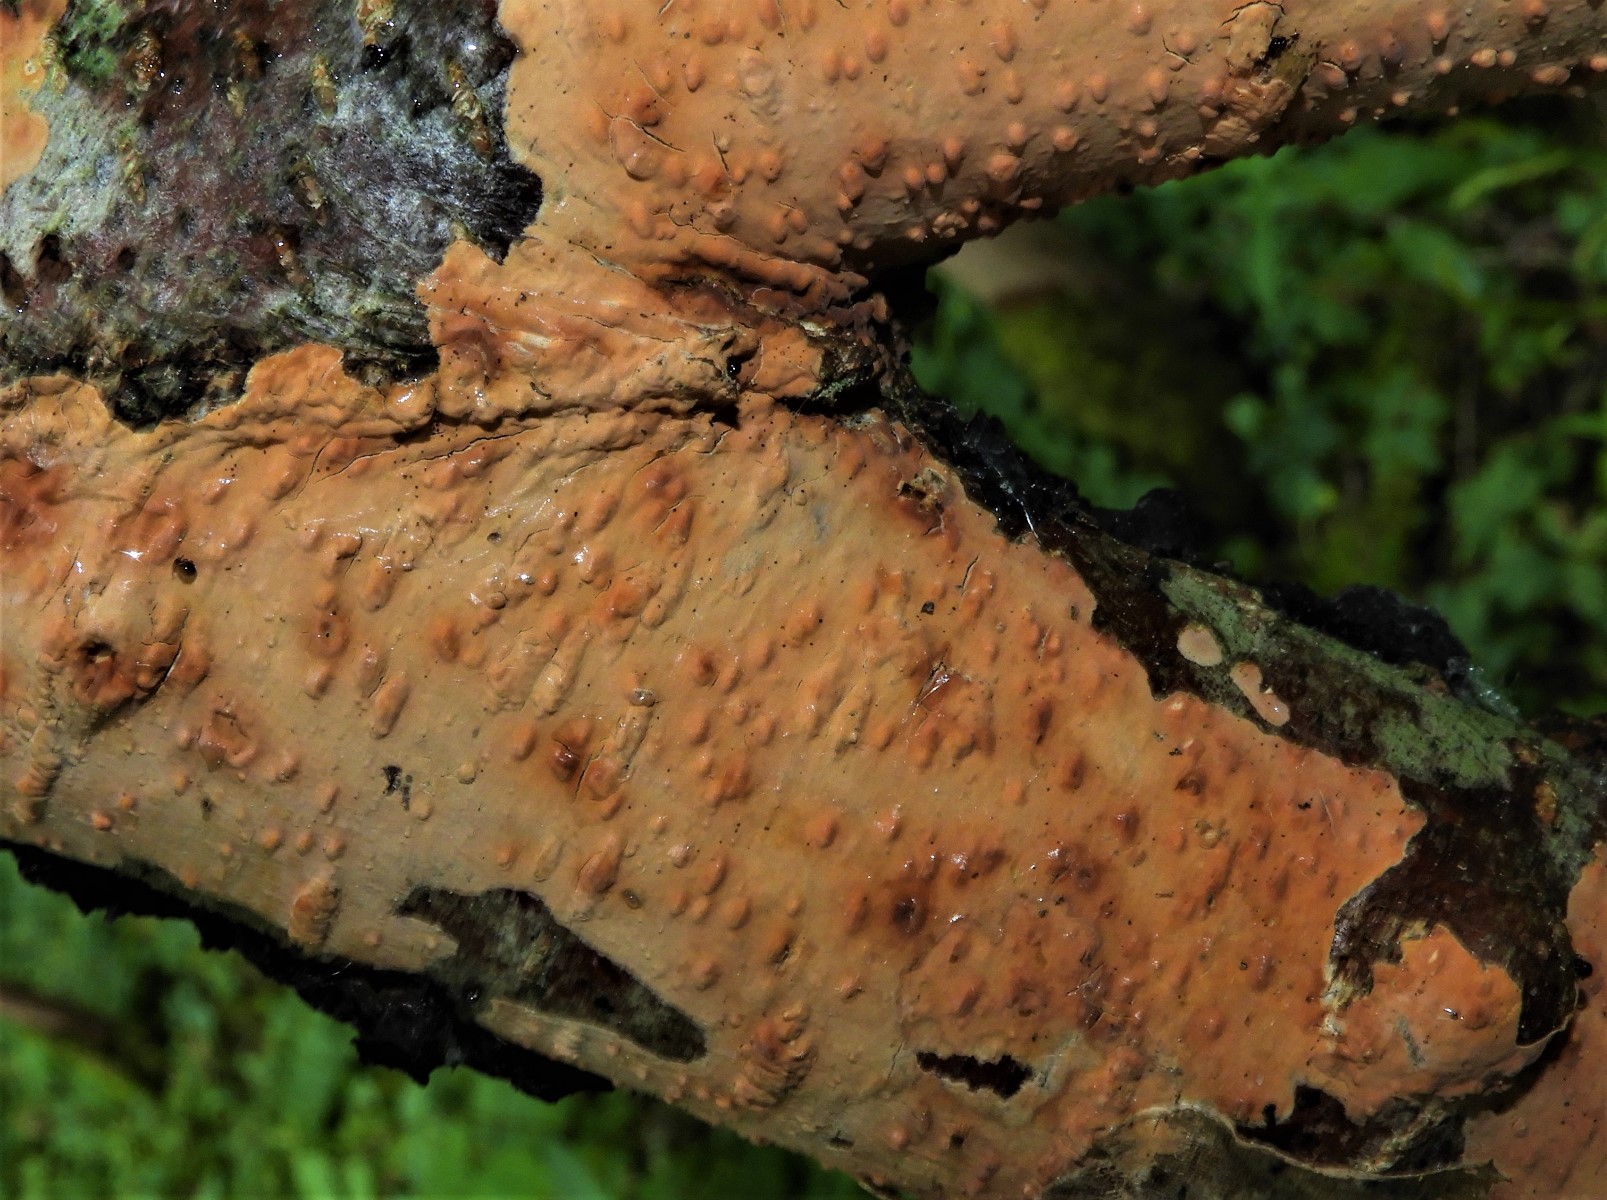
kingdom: Fungi
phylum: Basidiomycota
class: Agaricomycetes
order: Russulales
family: Peniophoraceae
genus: Peniophora
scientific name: Peniophora incarnata
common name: laksefarvet voksskind
